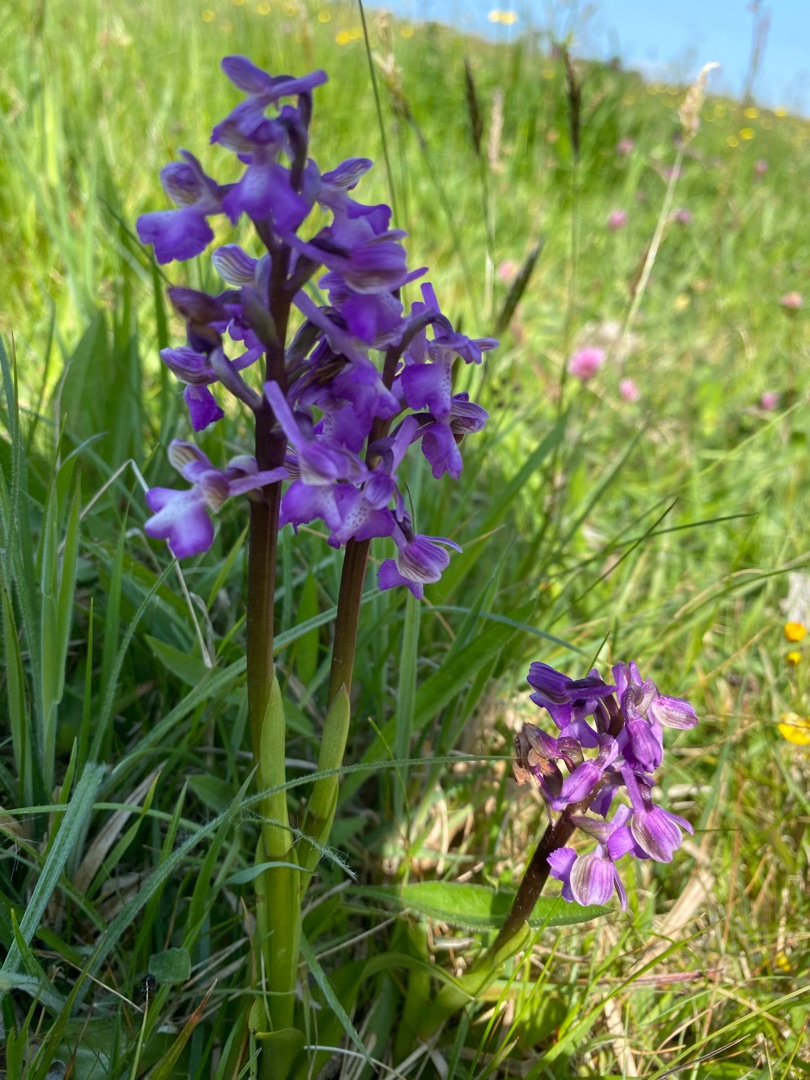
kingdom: Plantae
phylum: Tracheophyta
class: Liliopsida
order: Asparagales
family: Orchidaceae
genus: Anacamptis
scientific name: Anacamptis morio
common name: Salepgøgeurt
